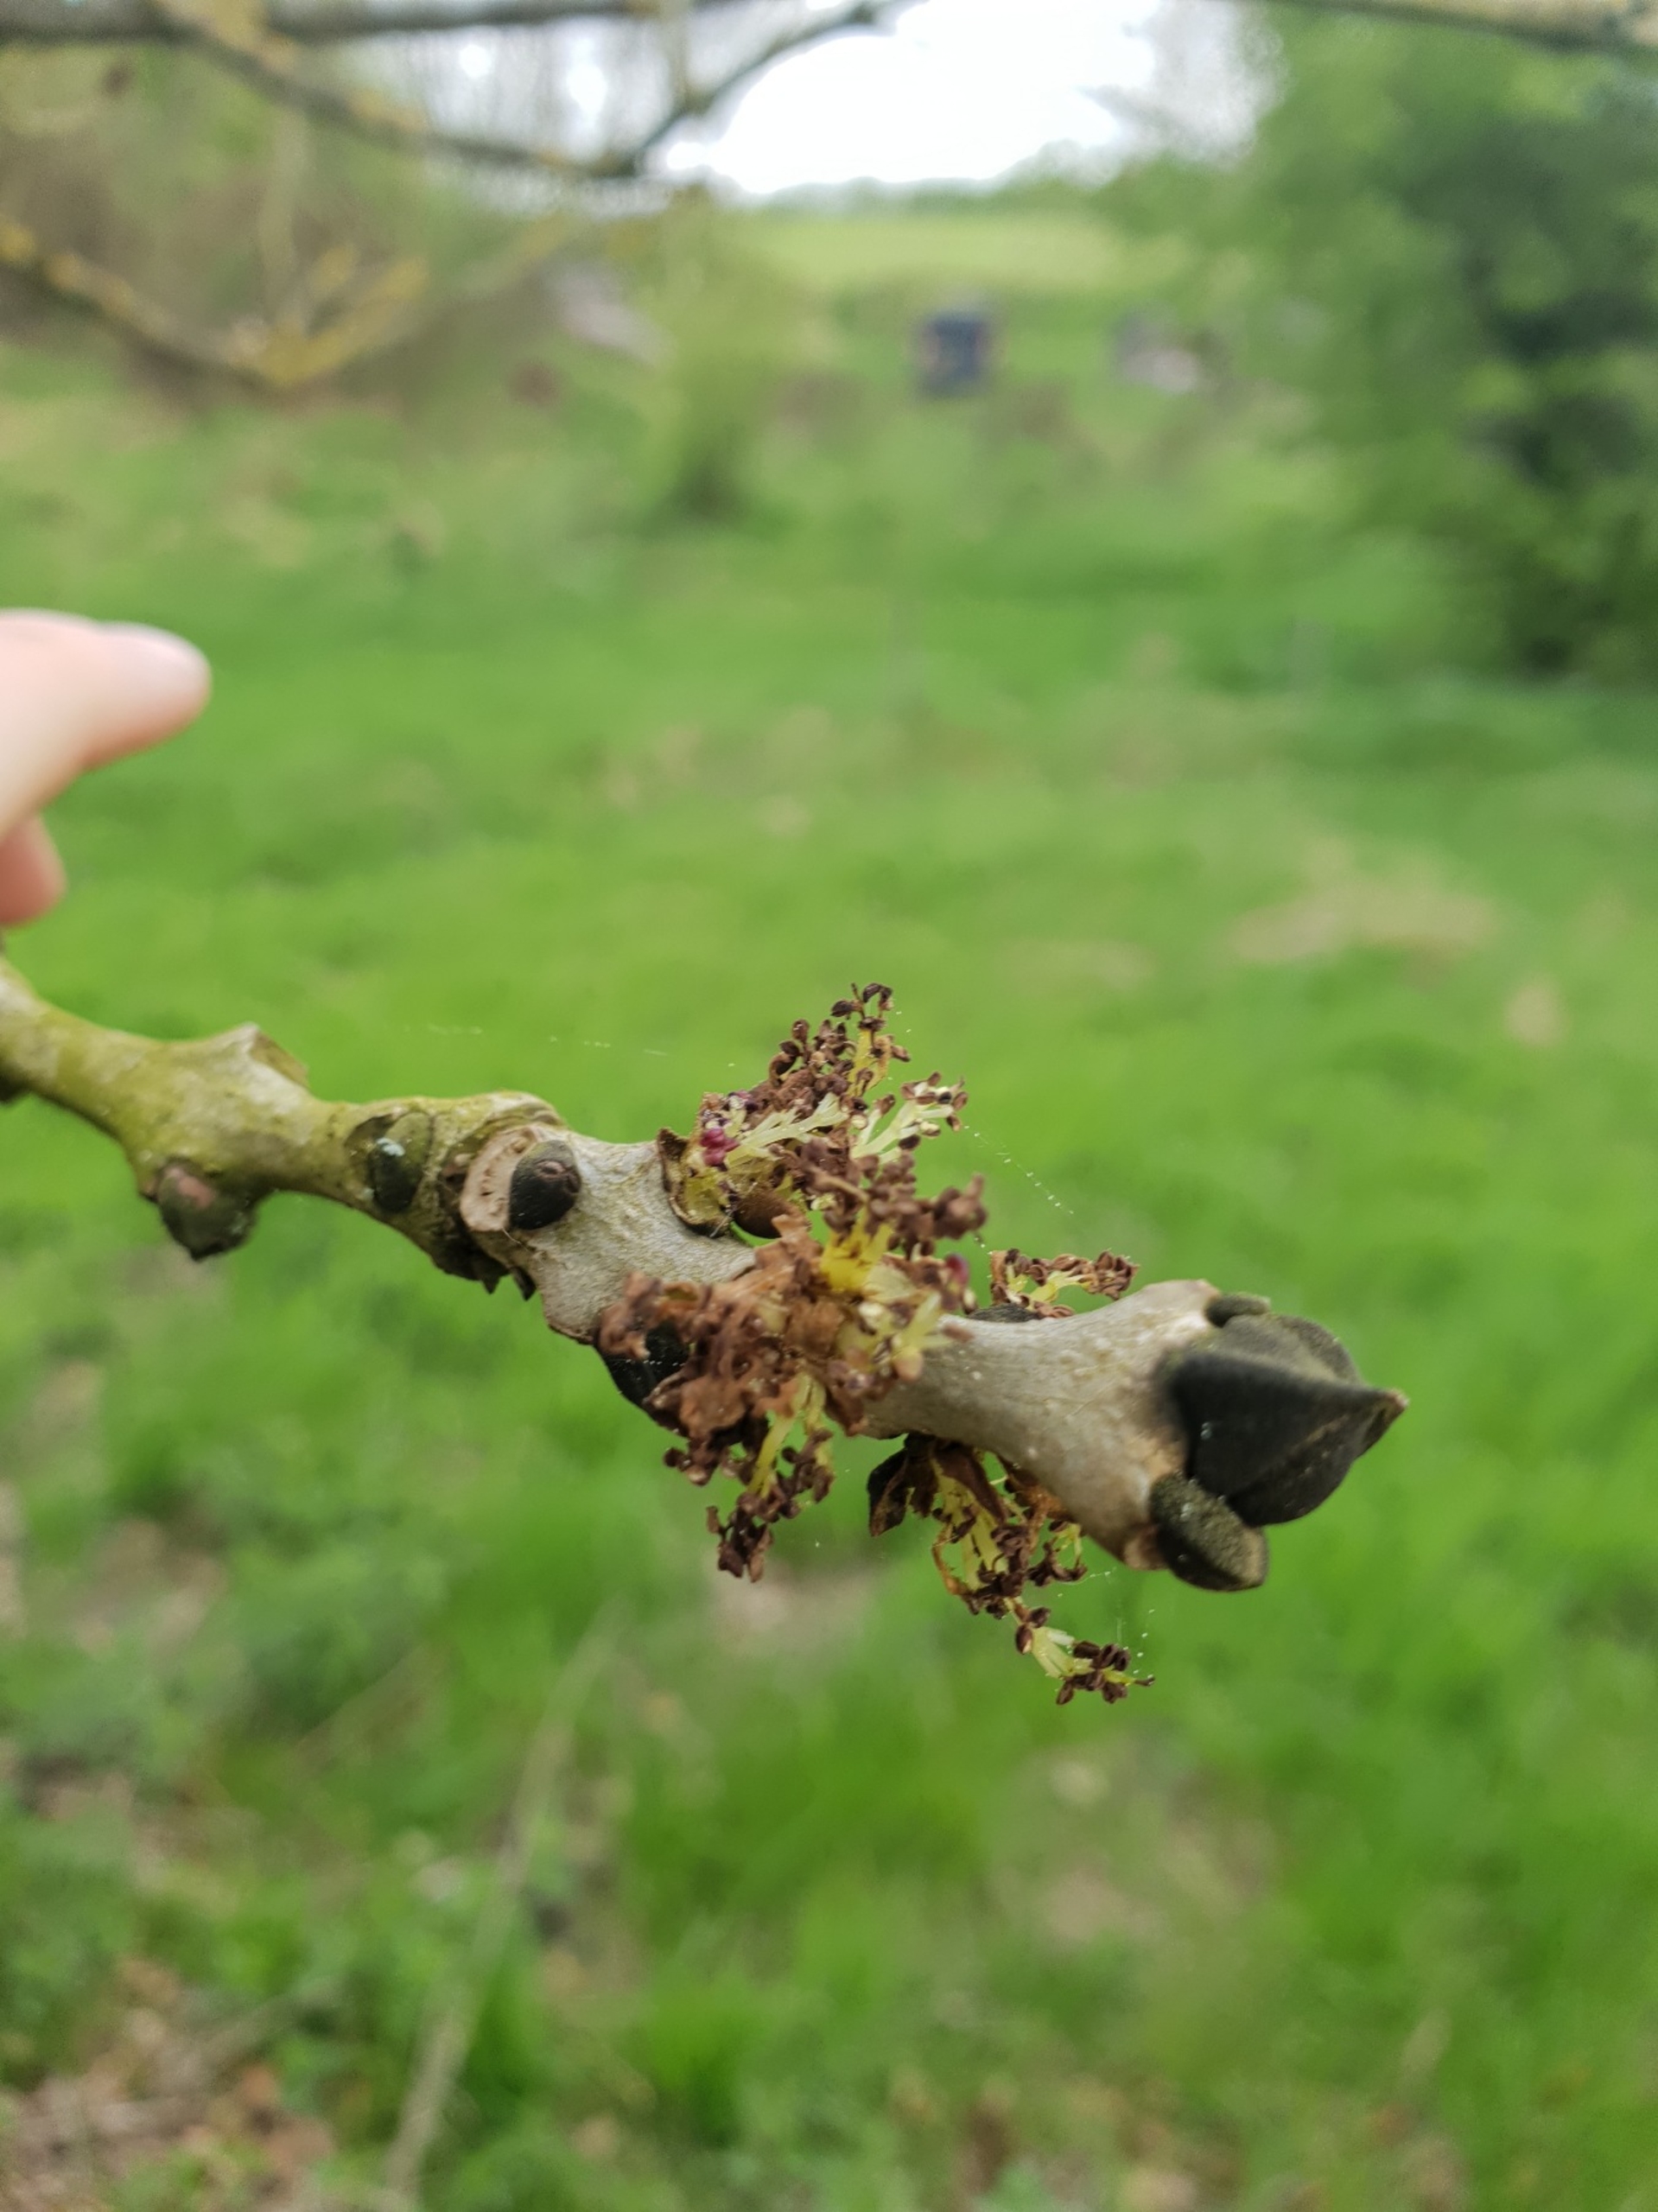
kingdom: Plantae
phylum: Tracheophyta
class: Magnoliopsida
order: Lamiales
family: Oleaceae
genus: Fraxinus
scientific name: Fraxinus excelsior
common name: Ask
